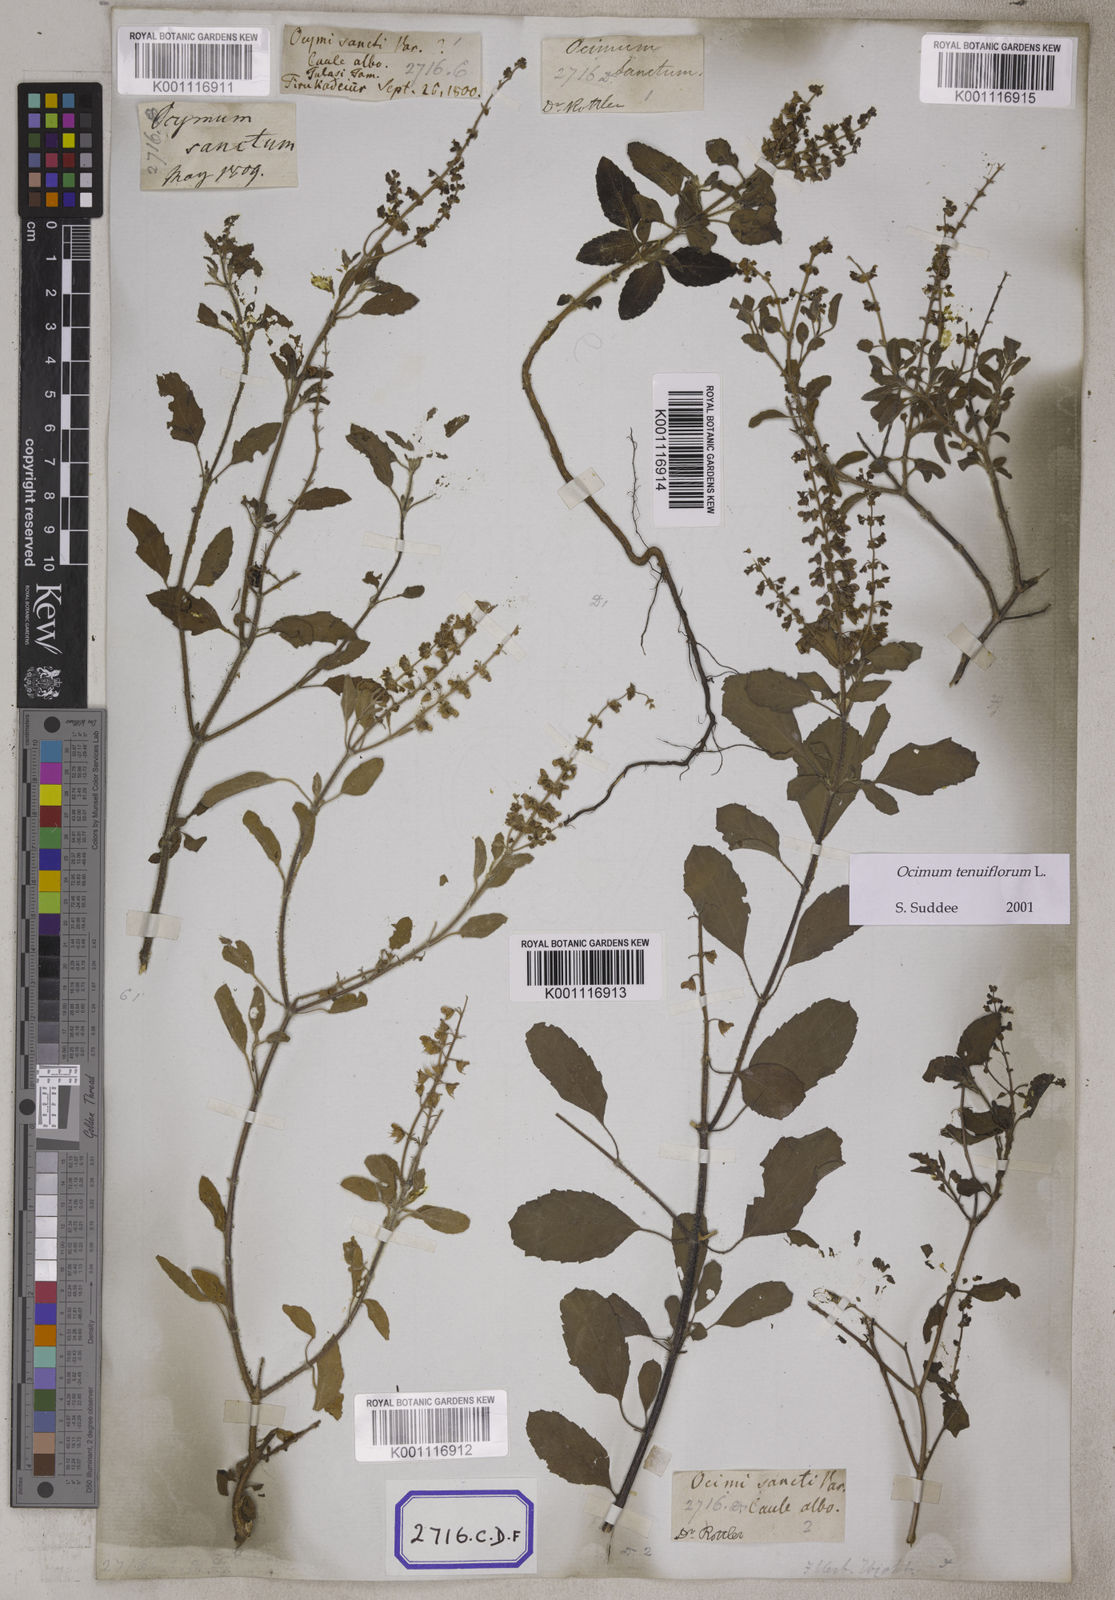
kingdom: Plantae
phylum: Tracheophyta
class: Magnoliopsida
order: Lamiales
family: Lamiaceae
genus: Ocimum
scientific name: Ocimum tenuiflorum
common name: Sacred basil
